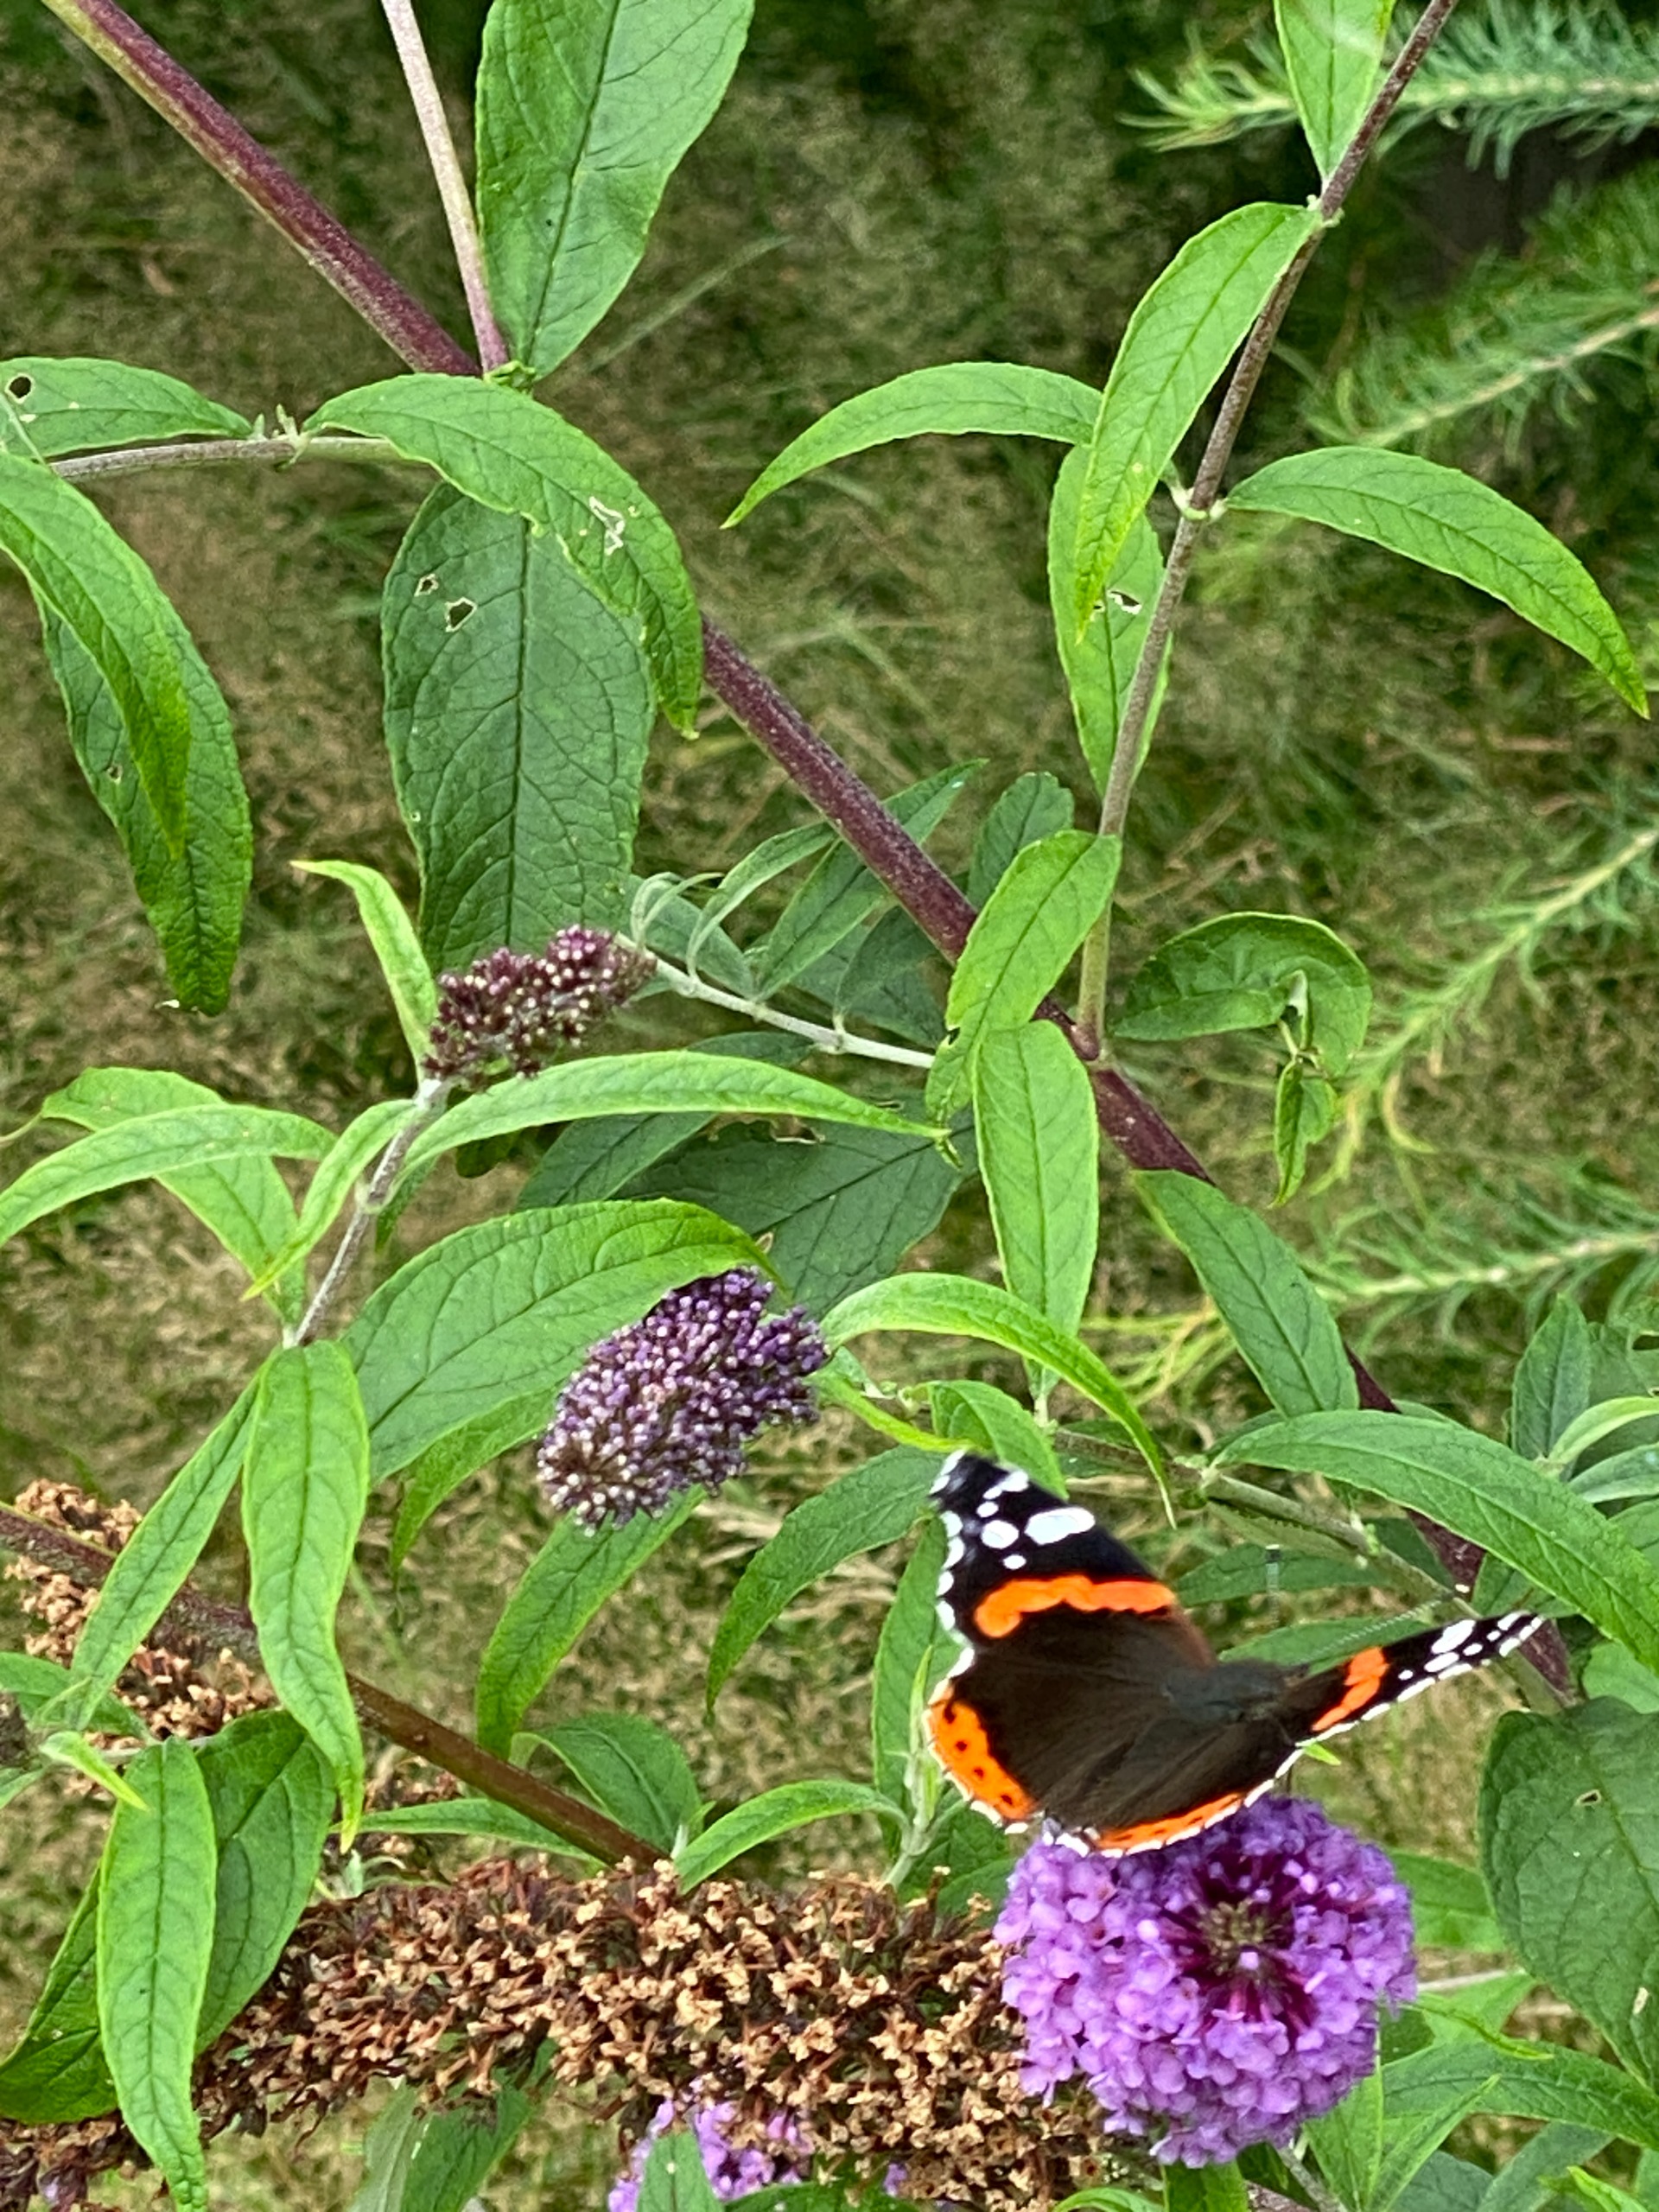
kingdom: Animalia
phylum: Arthropoda
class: Insecta
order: Lepidoptera
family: Nymphalidae
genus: Vanessa
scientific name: Vanessa atalanta
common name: Admiral
